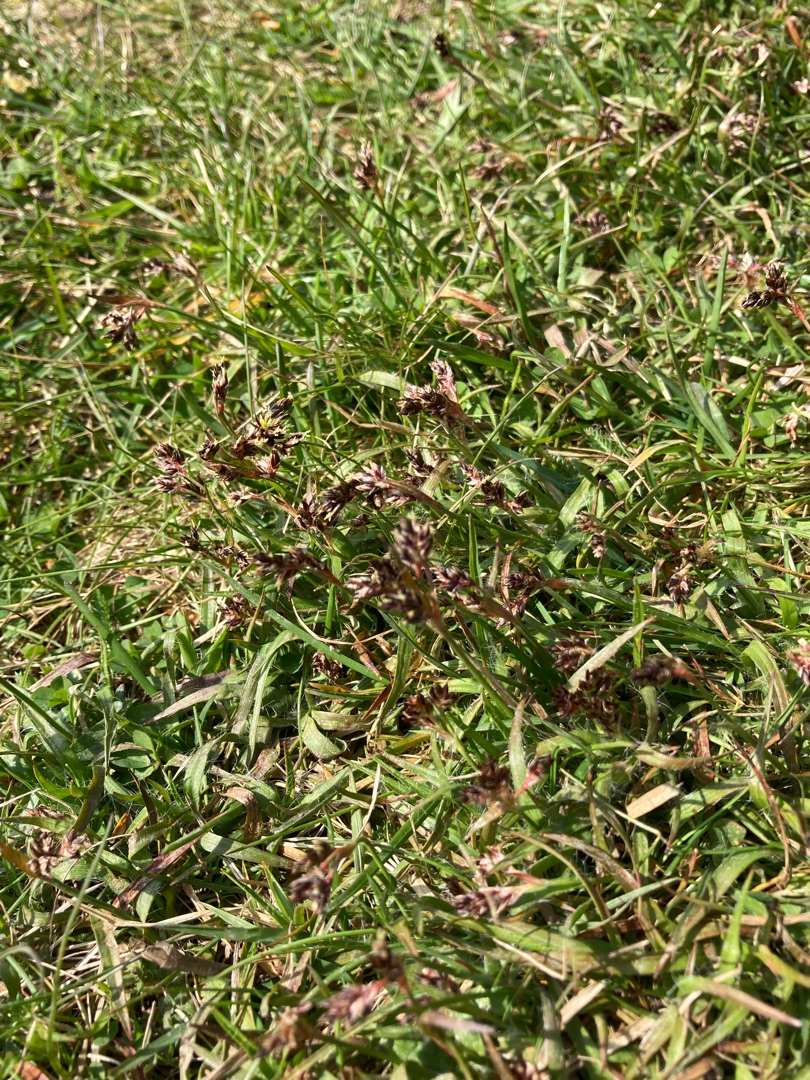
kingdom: Plantae
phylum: Tracheophyta
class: Liliopsida
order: Poales
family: Juncaceae
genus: Luzula
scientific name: Luzula campestris
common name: Mark-frytle
